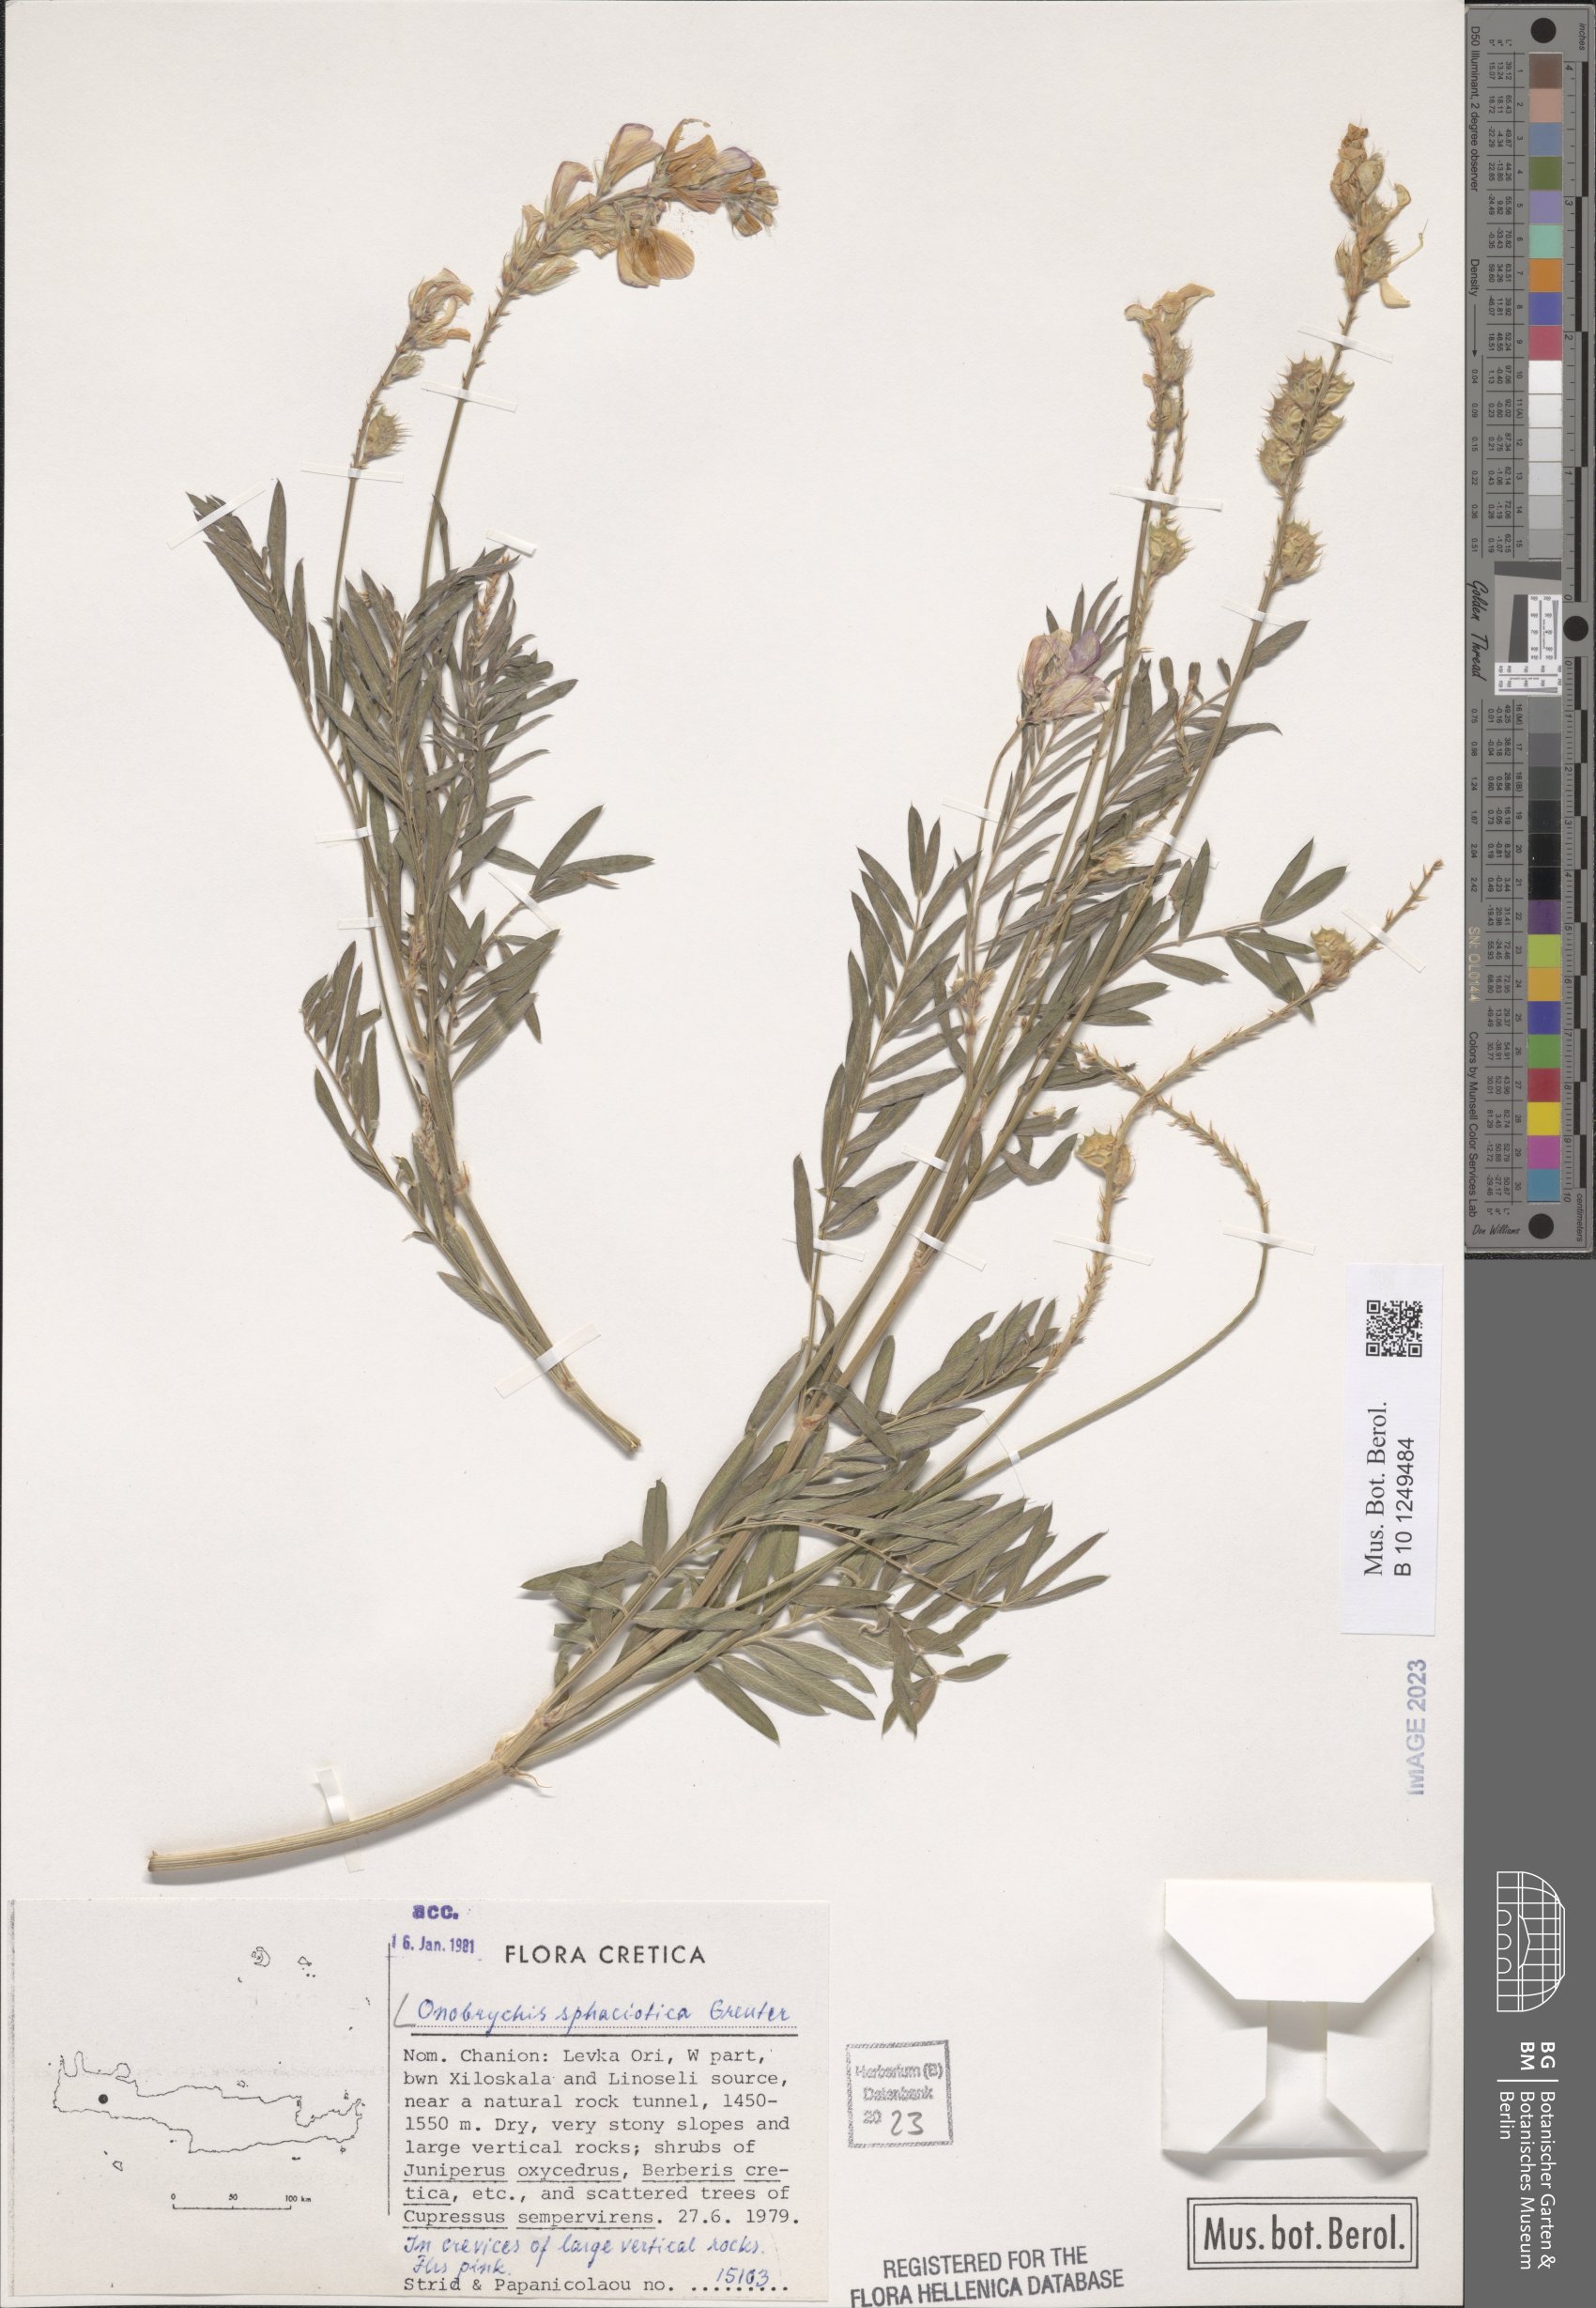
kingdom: Plantae
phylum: Tracheophyta
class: Magnoliopsida
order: Fabales
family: Fabaceae
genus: Onobrychis
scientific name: Onobrychis sphaciotica
